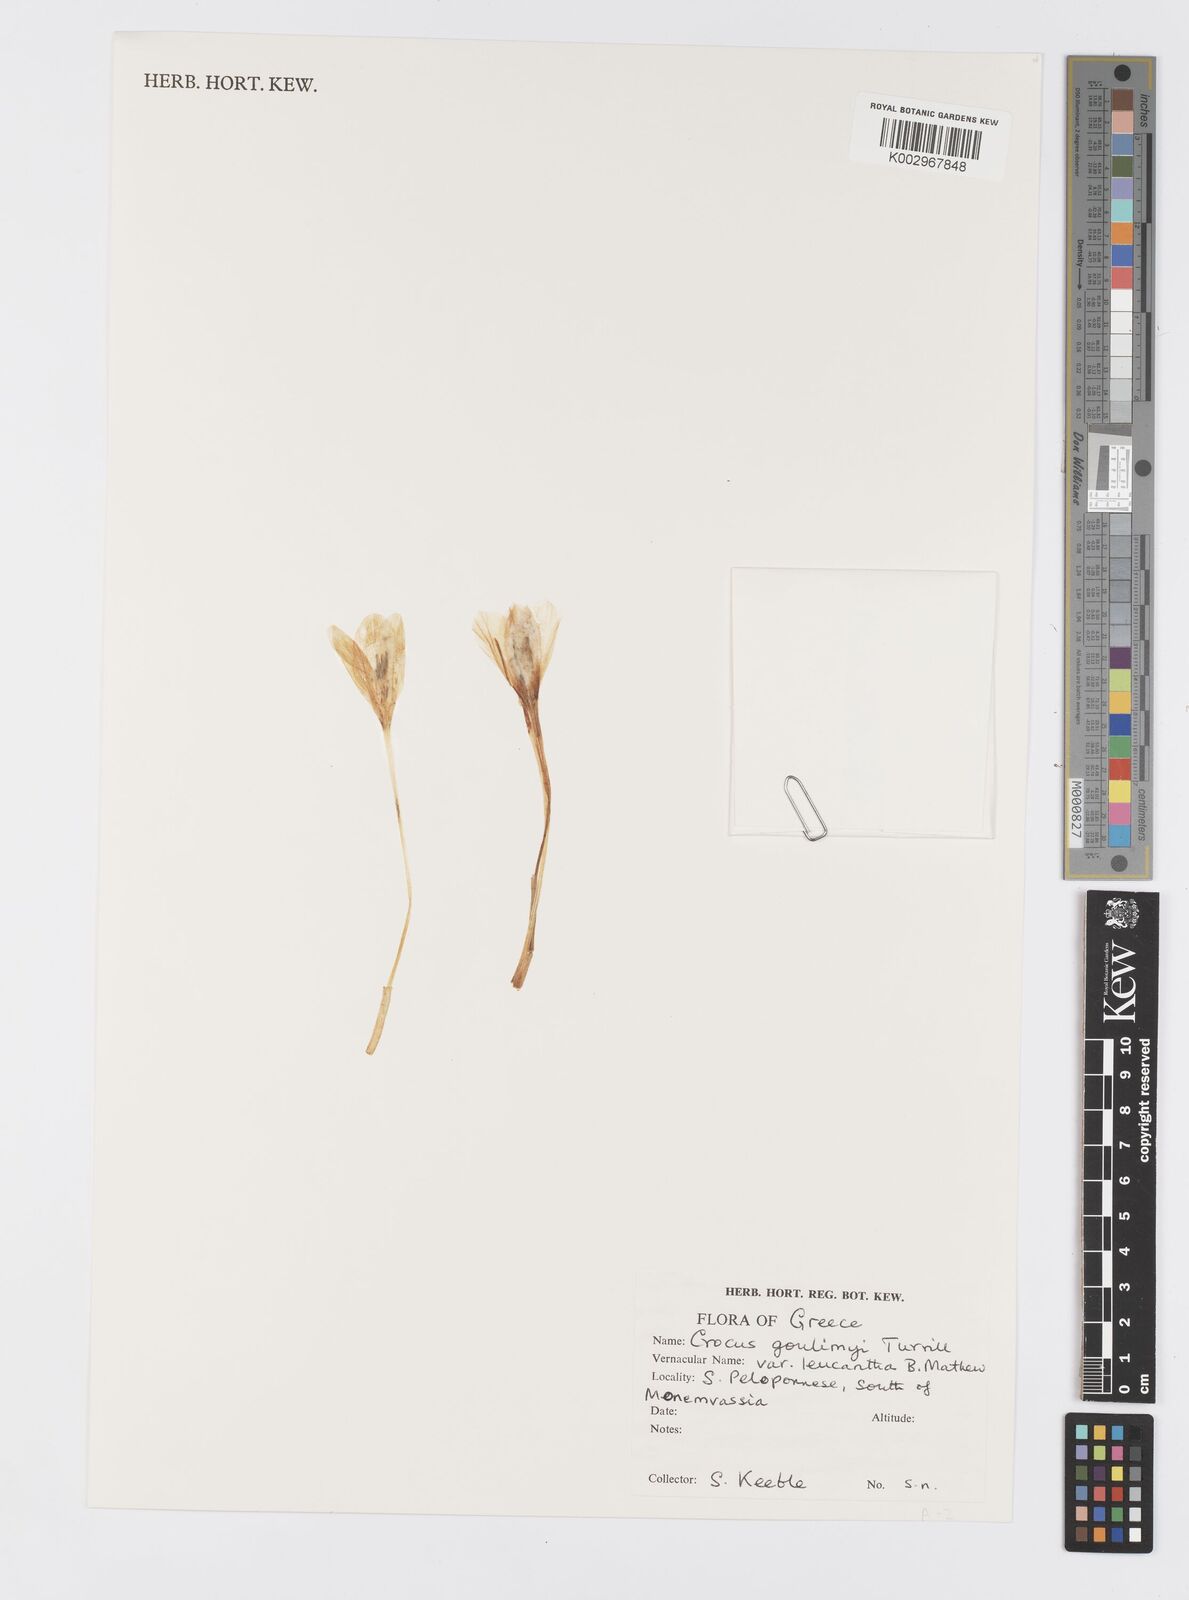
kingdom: Plantae
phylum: Tracheophyta
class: Liliopsida
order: Asparagales
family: Iridaceae
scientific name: Iridaceae
